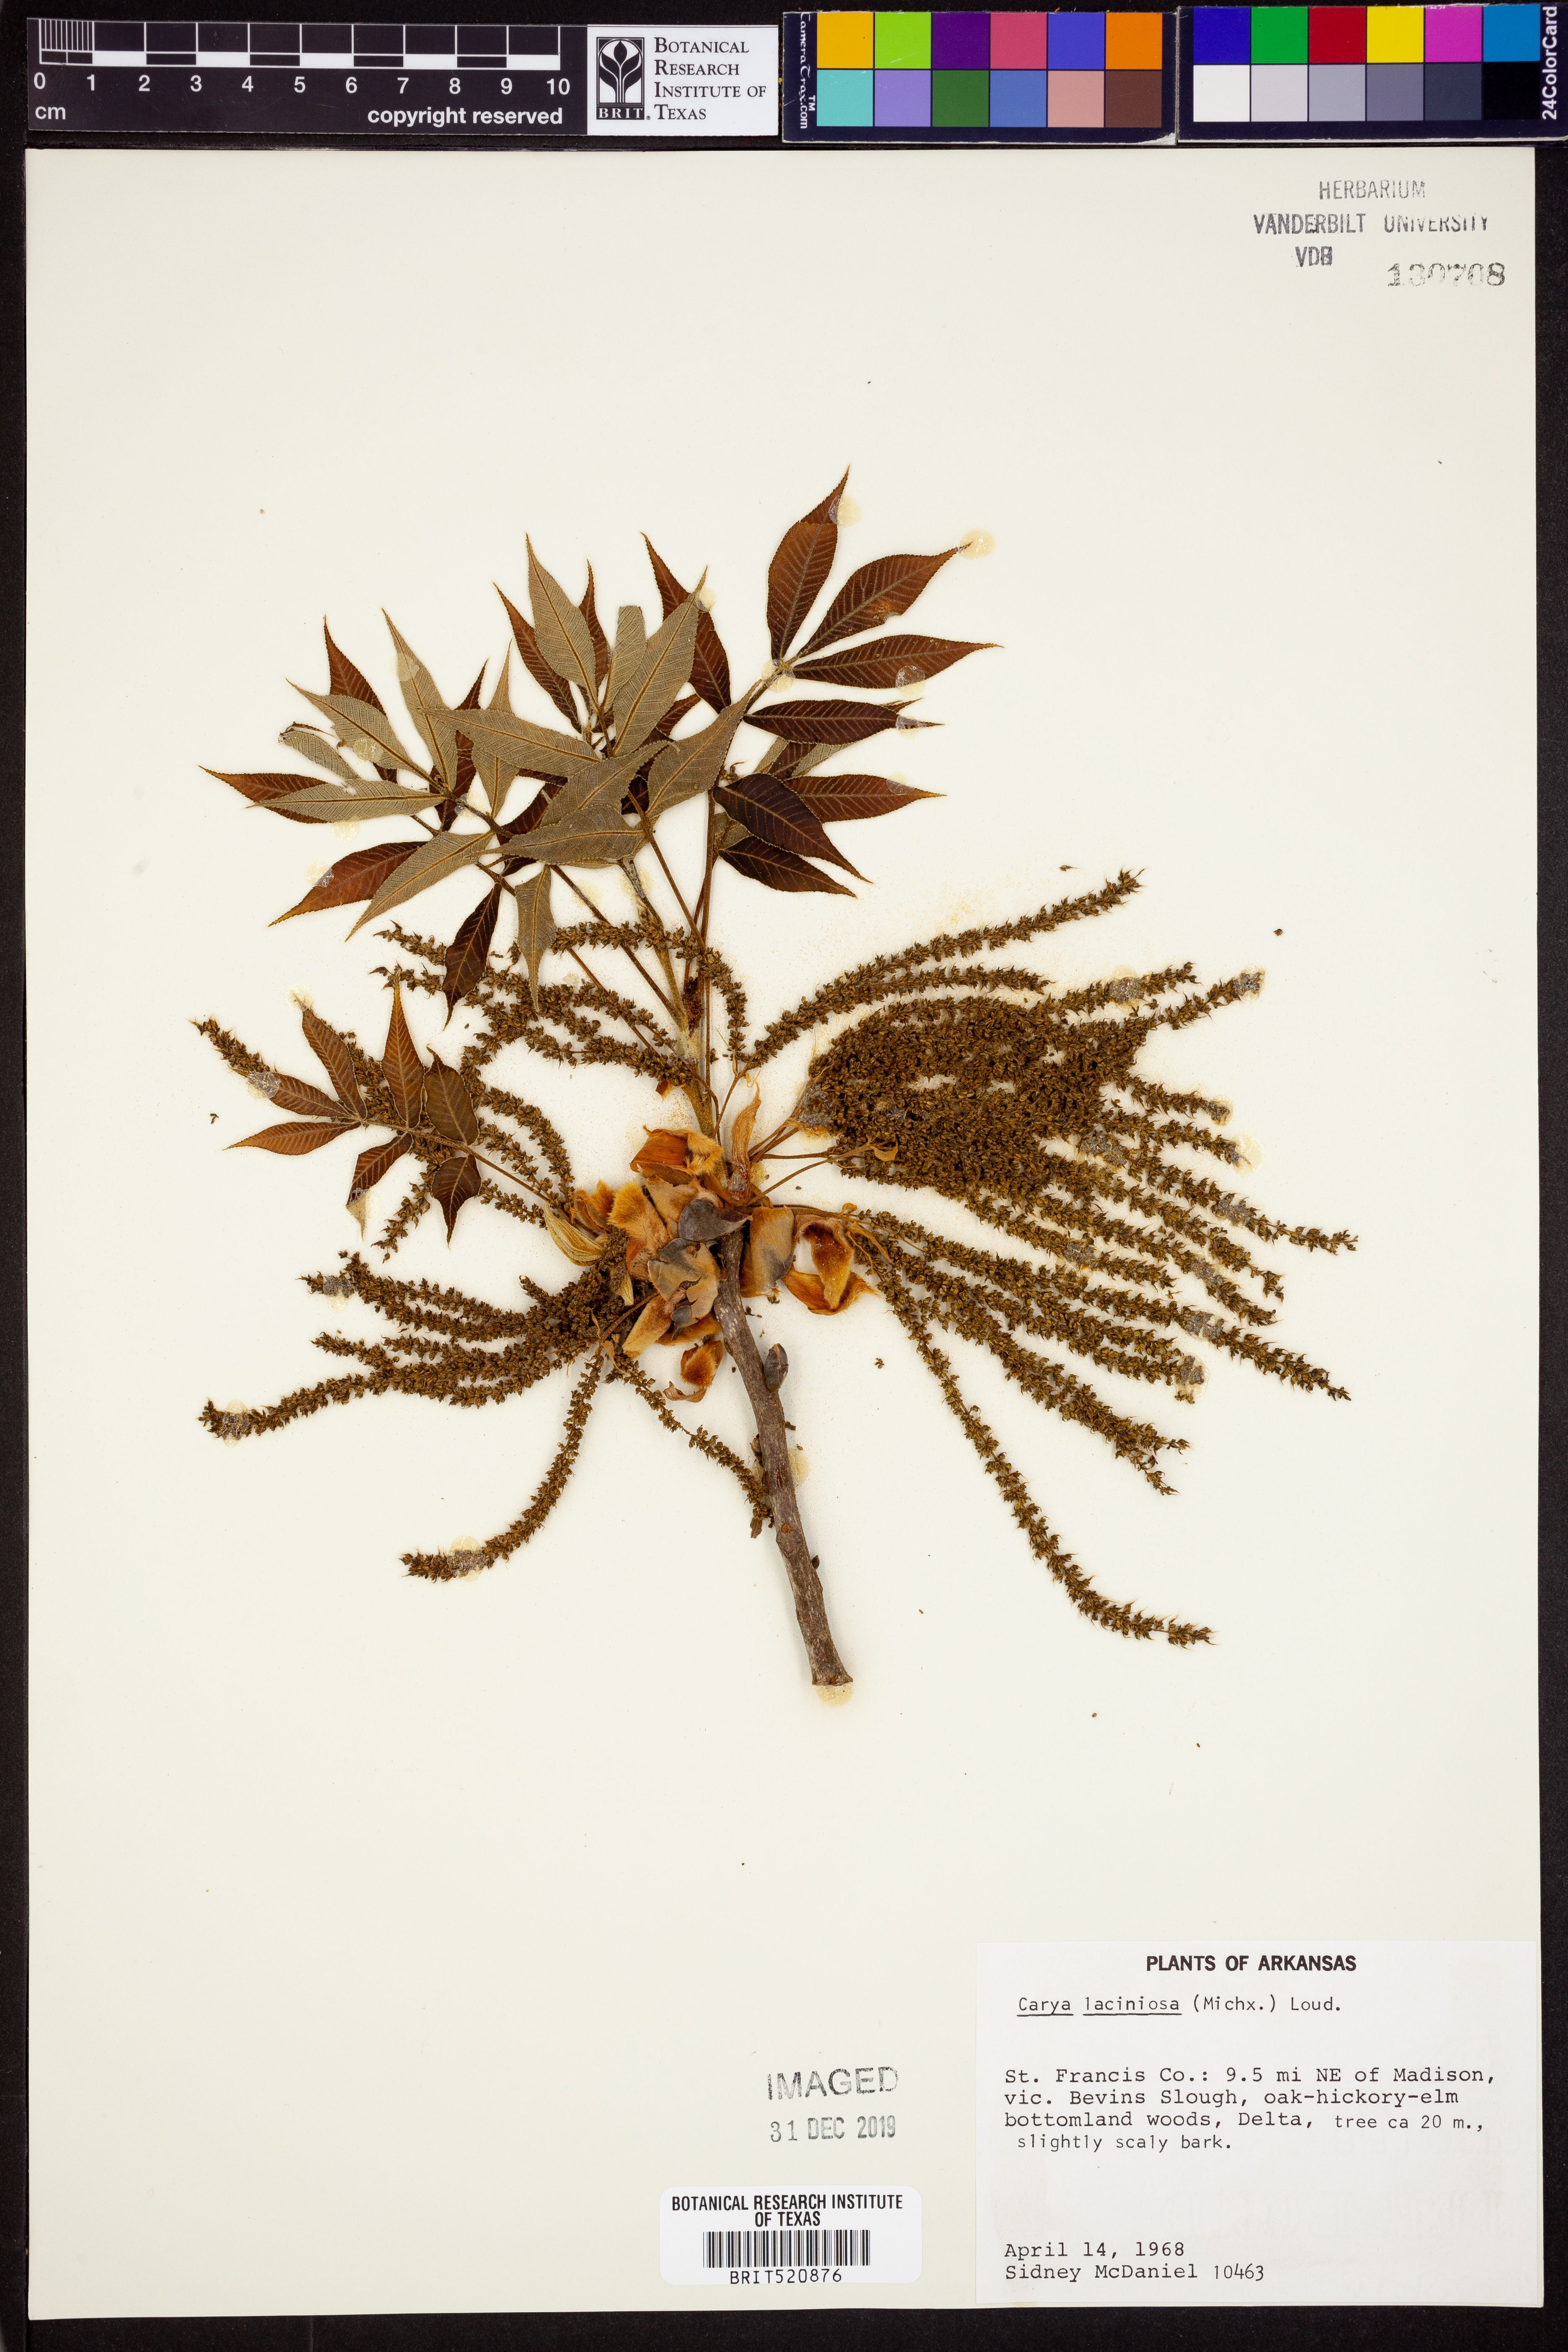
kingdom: Plantae
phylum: Tracheophyta
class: Magnoliopsida
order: Fagales
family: Juglandaceae
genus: Carya
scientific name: Carya laciniosa
